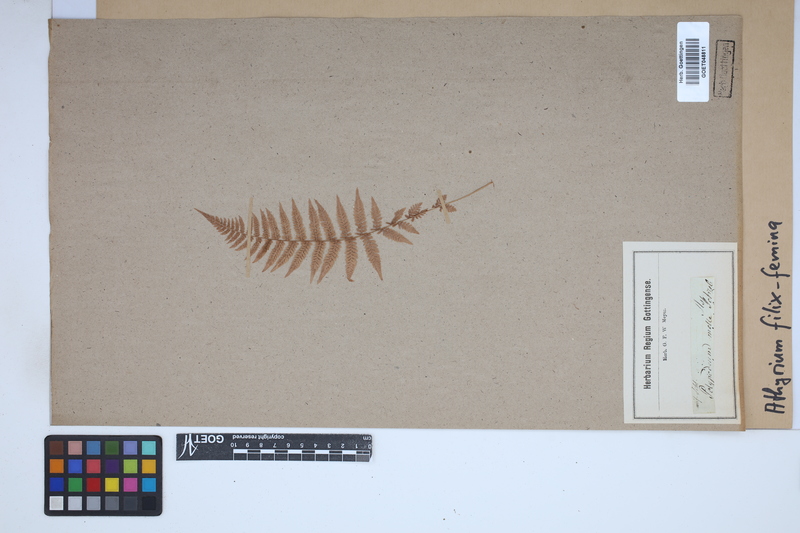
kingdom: Plantae
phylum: Tracheophyta
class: Polypodiopsida
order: Polypodiales
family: Athyriaceae
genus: Athyrium
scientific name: Athyrium filix-femina
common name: Lady fern
